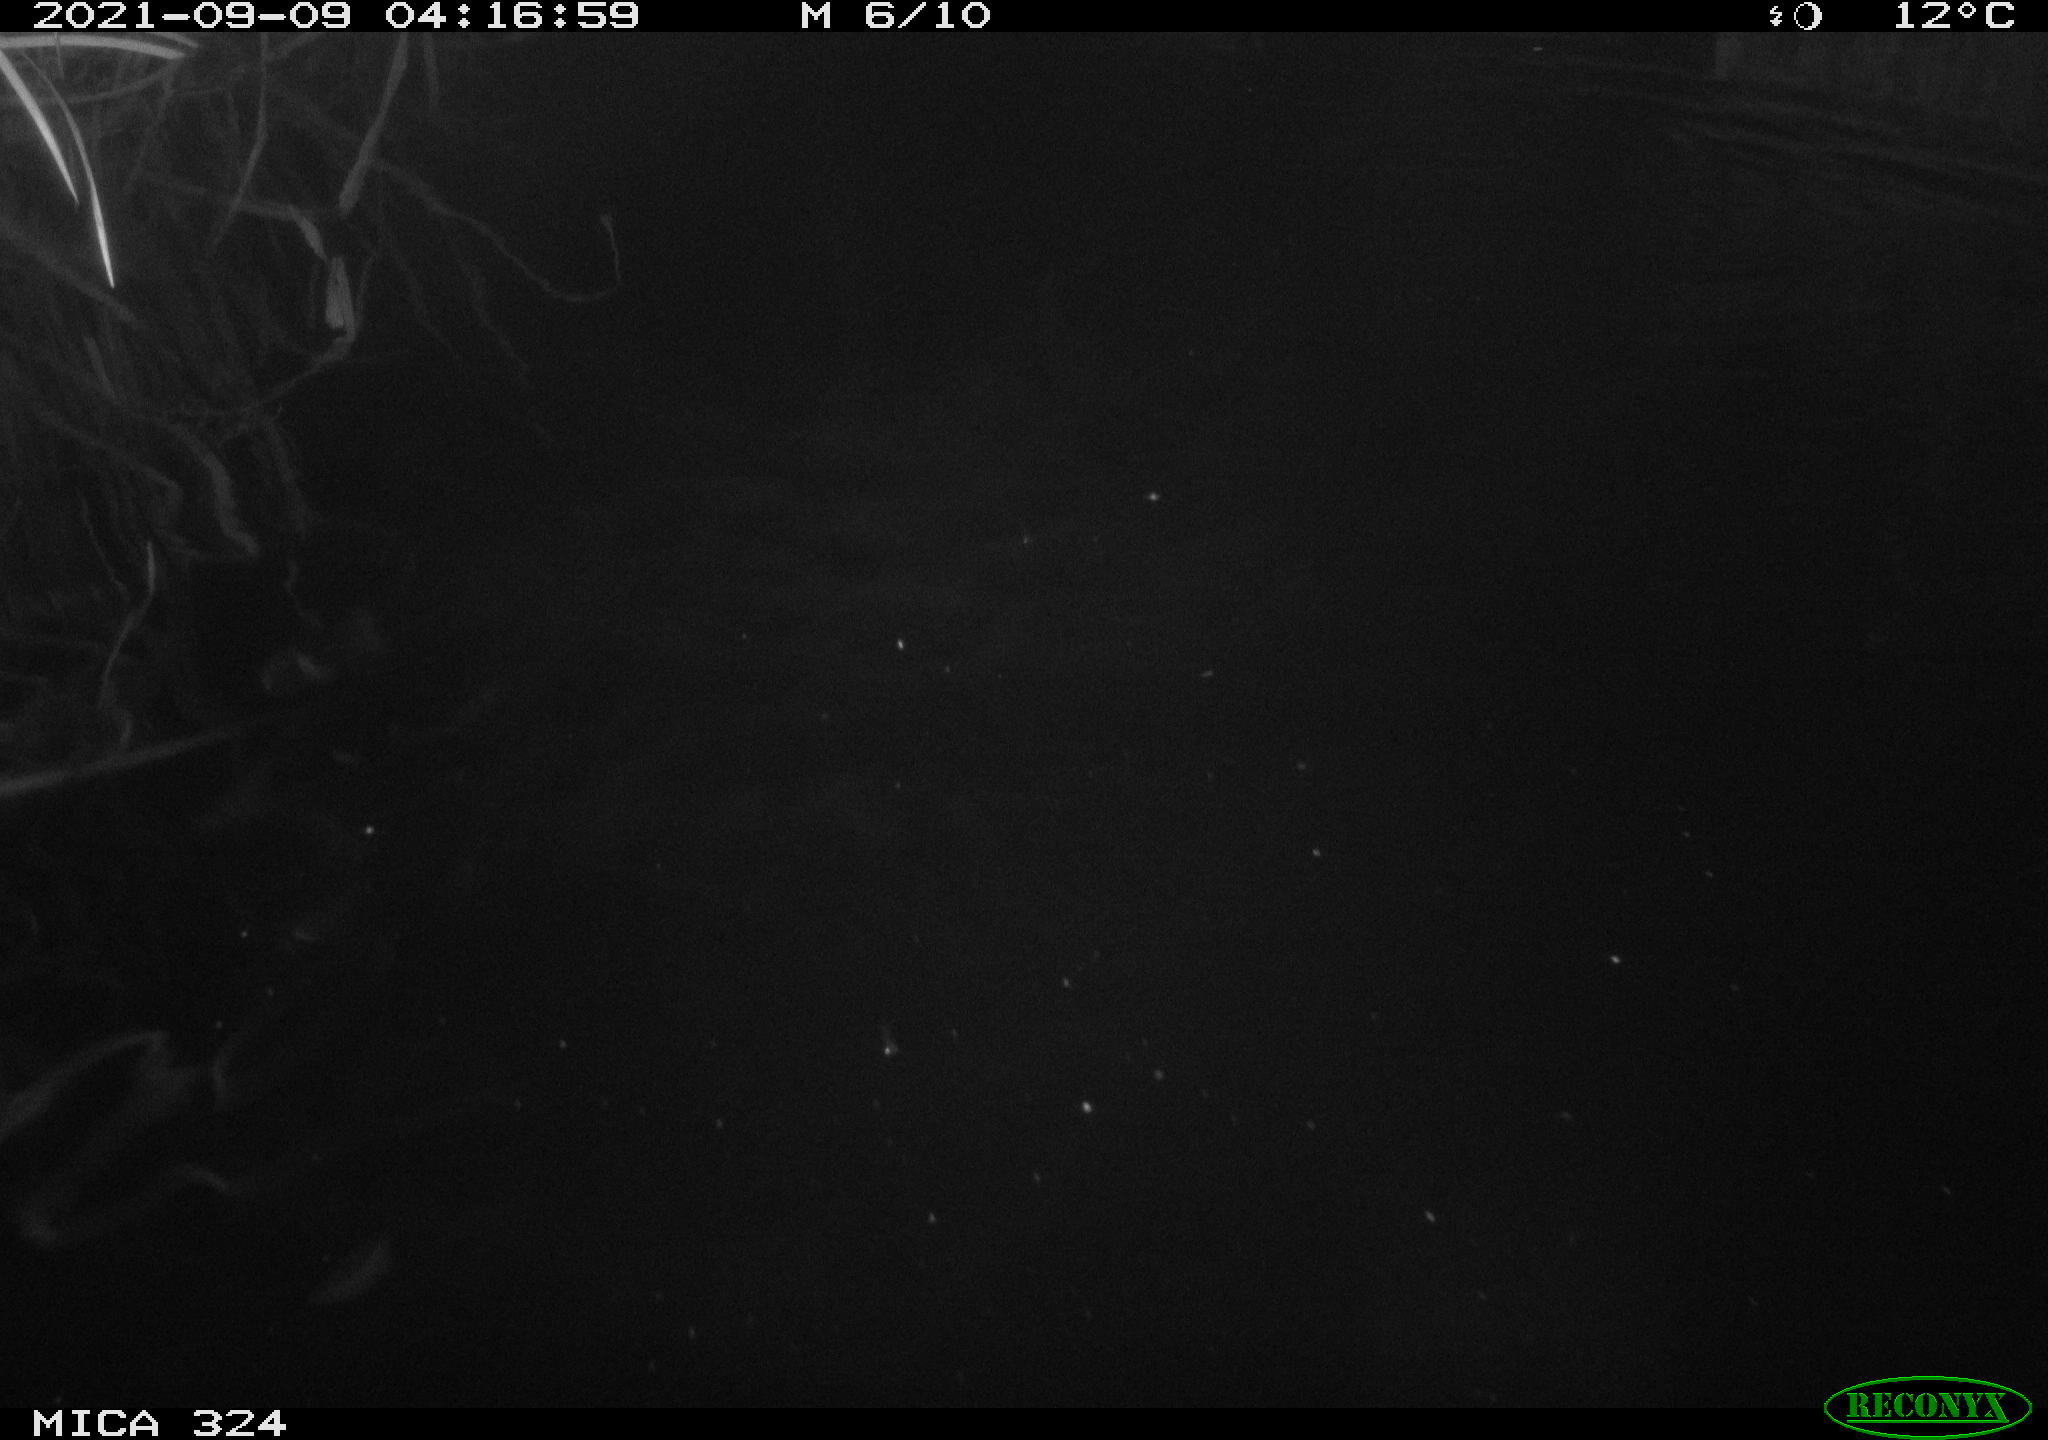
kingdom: Animalia
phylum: Chordata
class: Mammalia
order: Rodentia
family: Cricetidae
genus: Ondatra
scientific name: Ondatra zibethicus
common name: Muskrat
